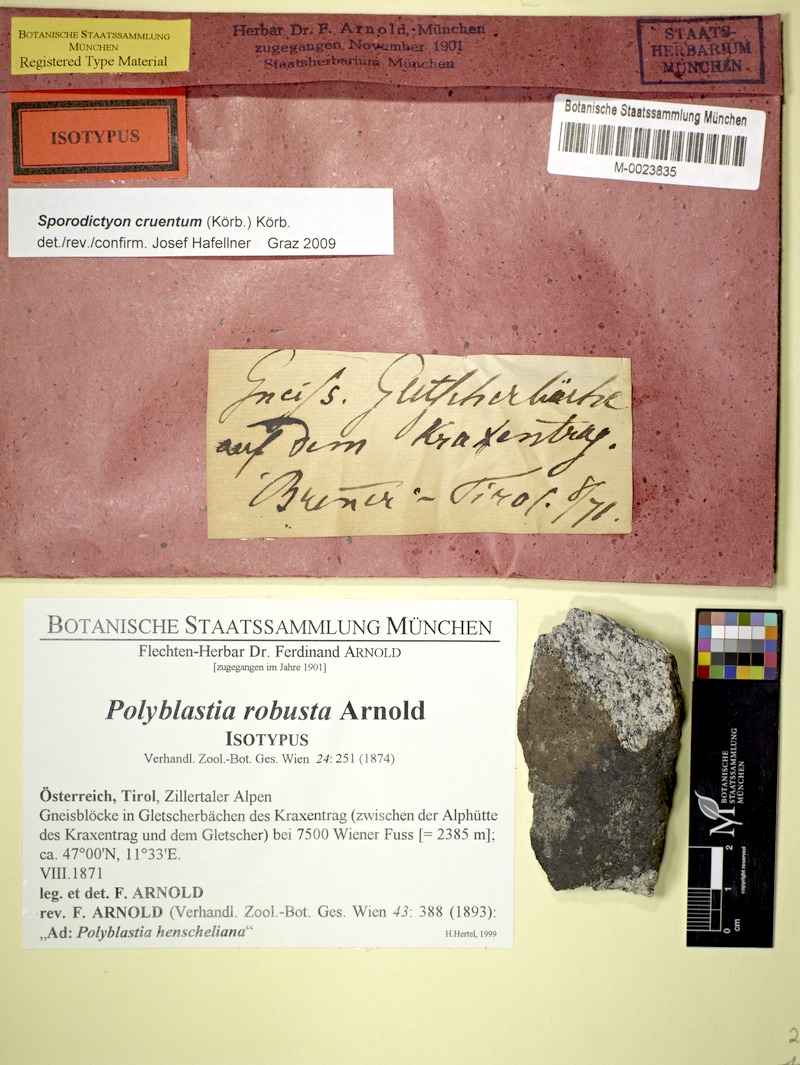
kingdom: Fungi
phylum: Ascomycota
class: Eurotiomycetes
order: Verrucariales
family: Verrucariaceae
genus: Sporodictyon
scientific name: Sporodictyon cruentum
